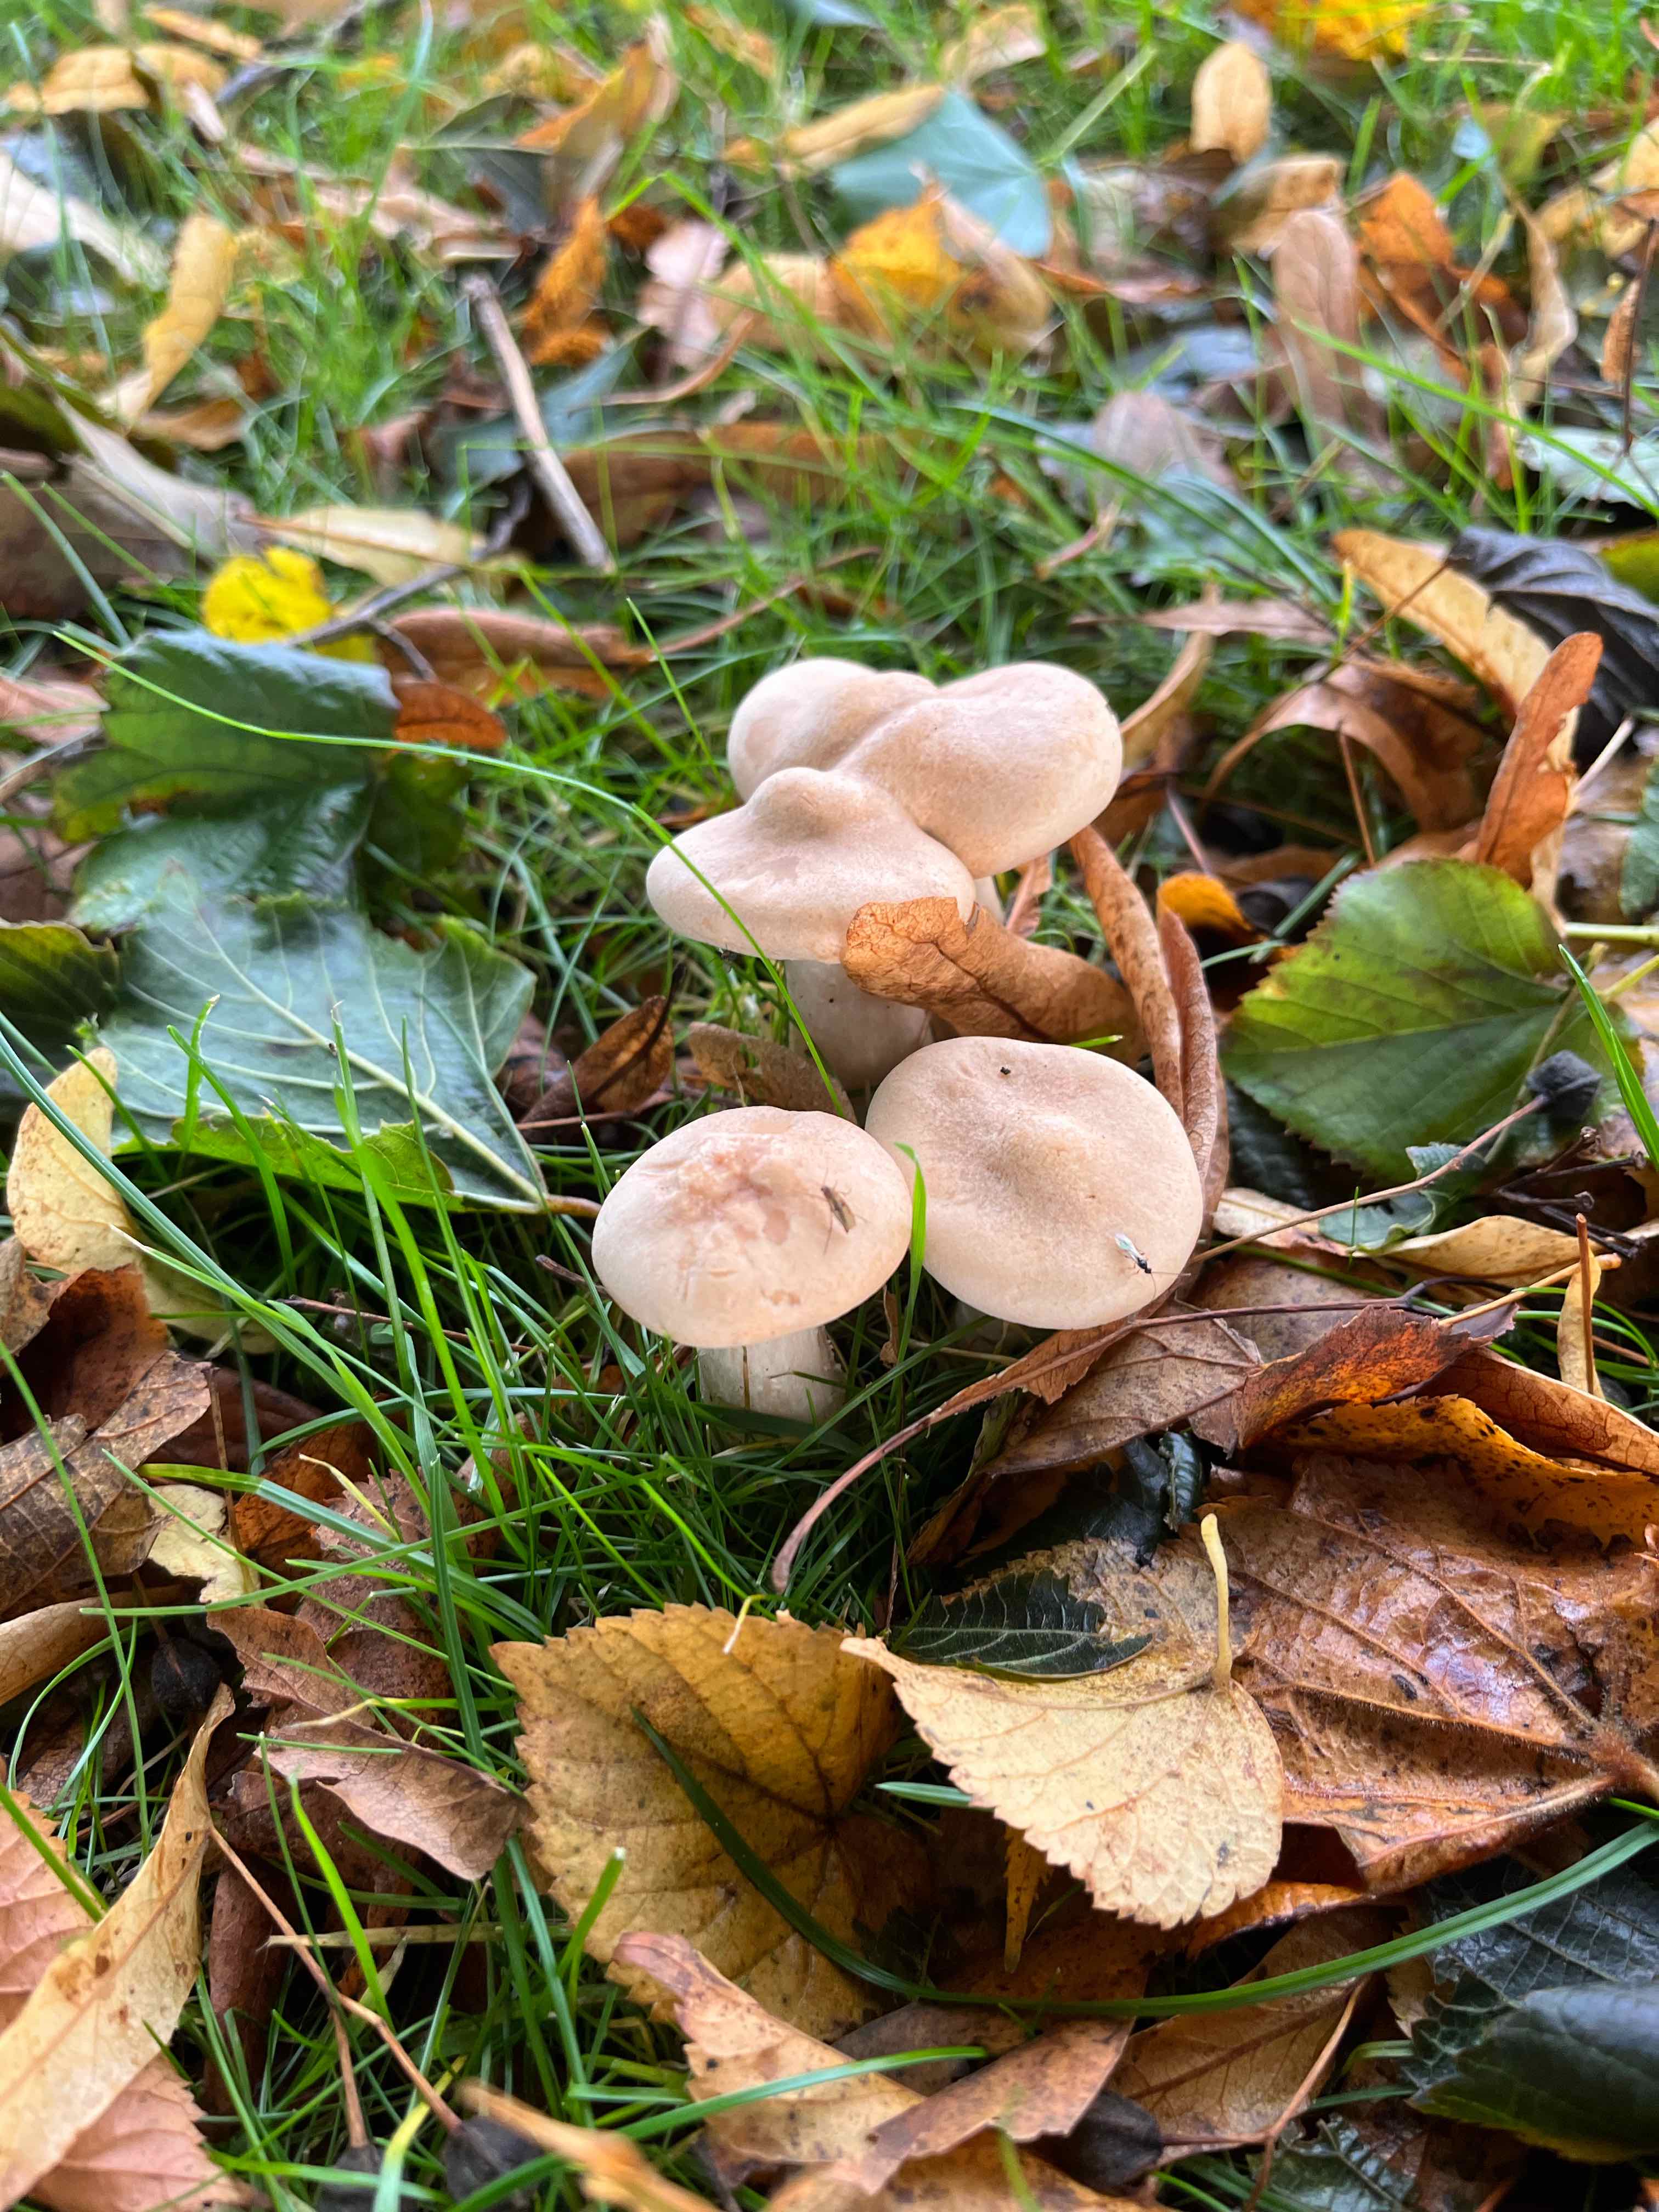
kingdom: Fungi
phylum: Basidiomycota
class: Agaricomycetes
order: Agaricales
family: Tricholomataceae
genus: Infundibulicybe
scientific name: Infundibulicybe geotropa
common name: stor tragthat
